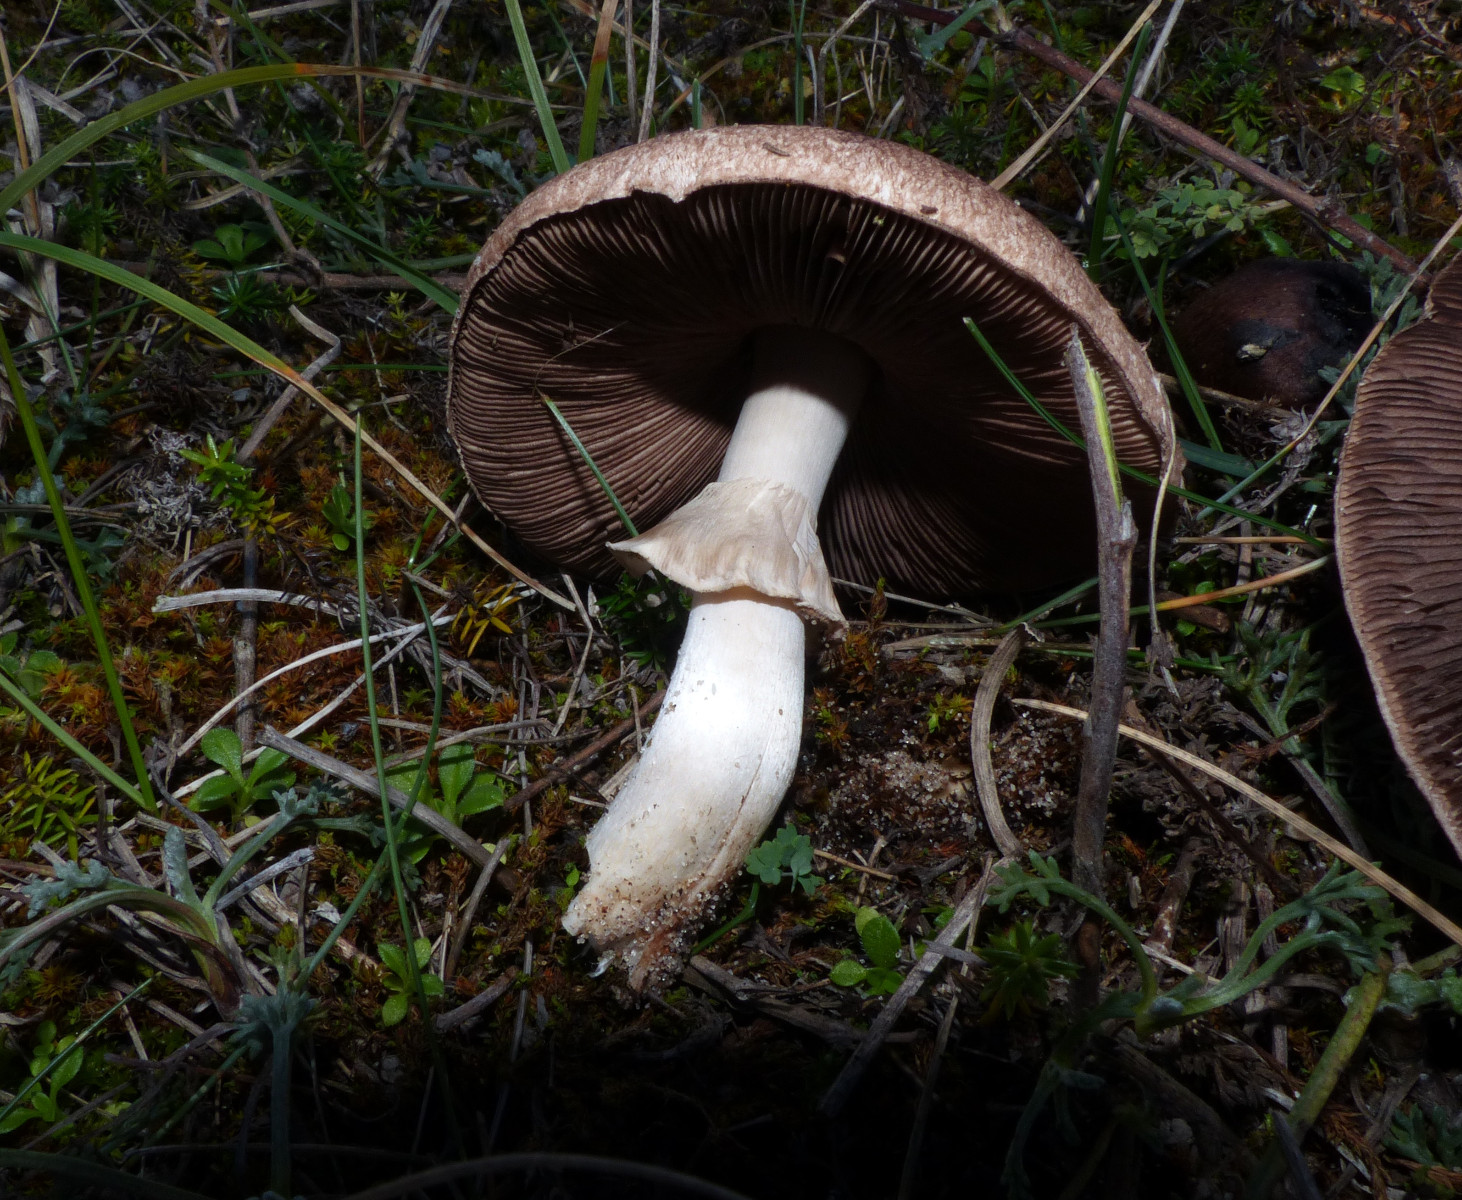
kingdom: Fungi
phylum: Basidiomycota
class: Agaricomycetes
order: Agaricales
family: Agaricaceae
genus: Agaricus
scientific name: Agaricus
